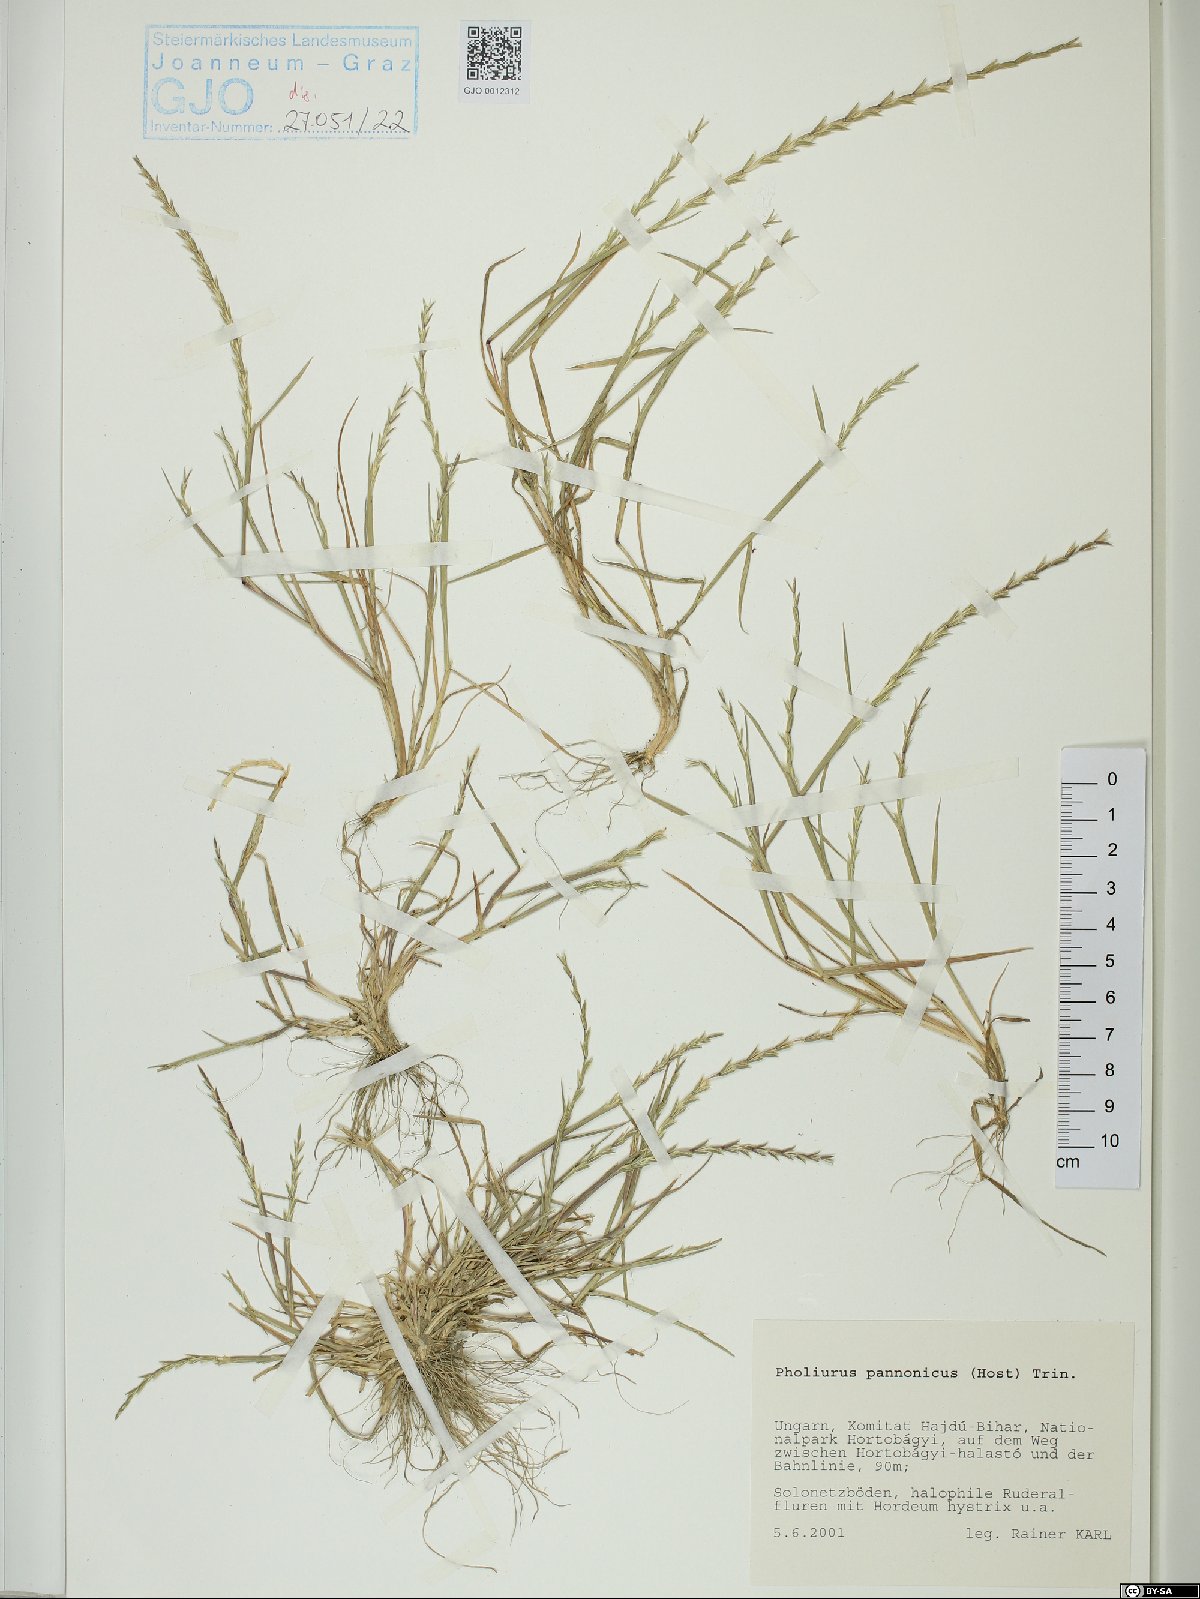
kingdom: Plantae
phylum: Tracheophyta
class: Liliopsida
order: Poales
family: Poaceae
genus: Pholiurus
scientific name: Pholiurus pannonicus
